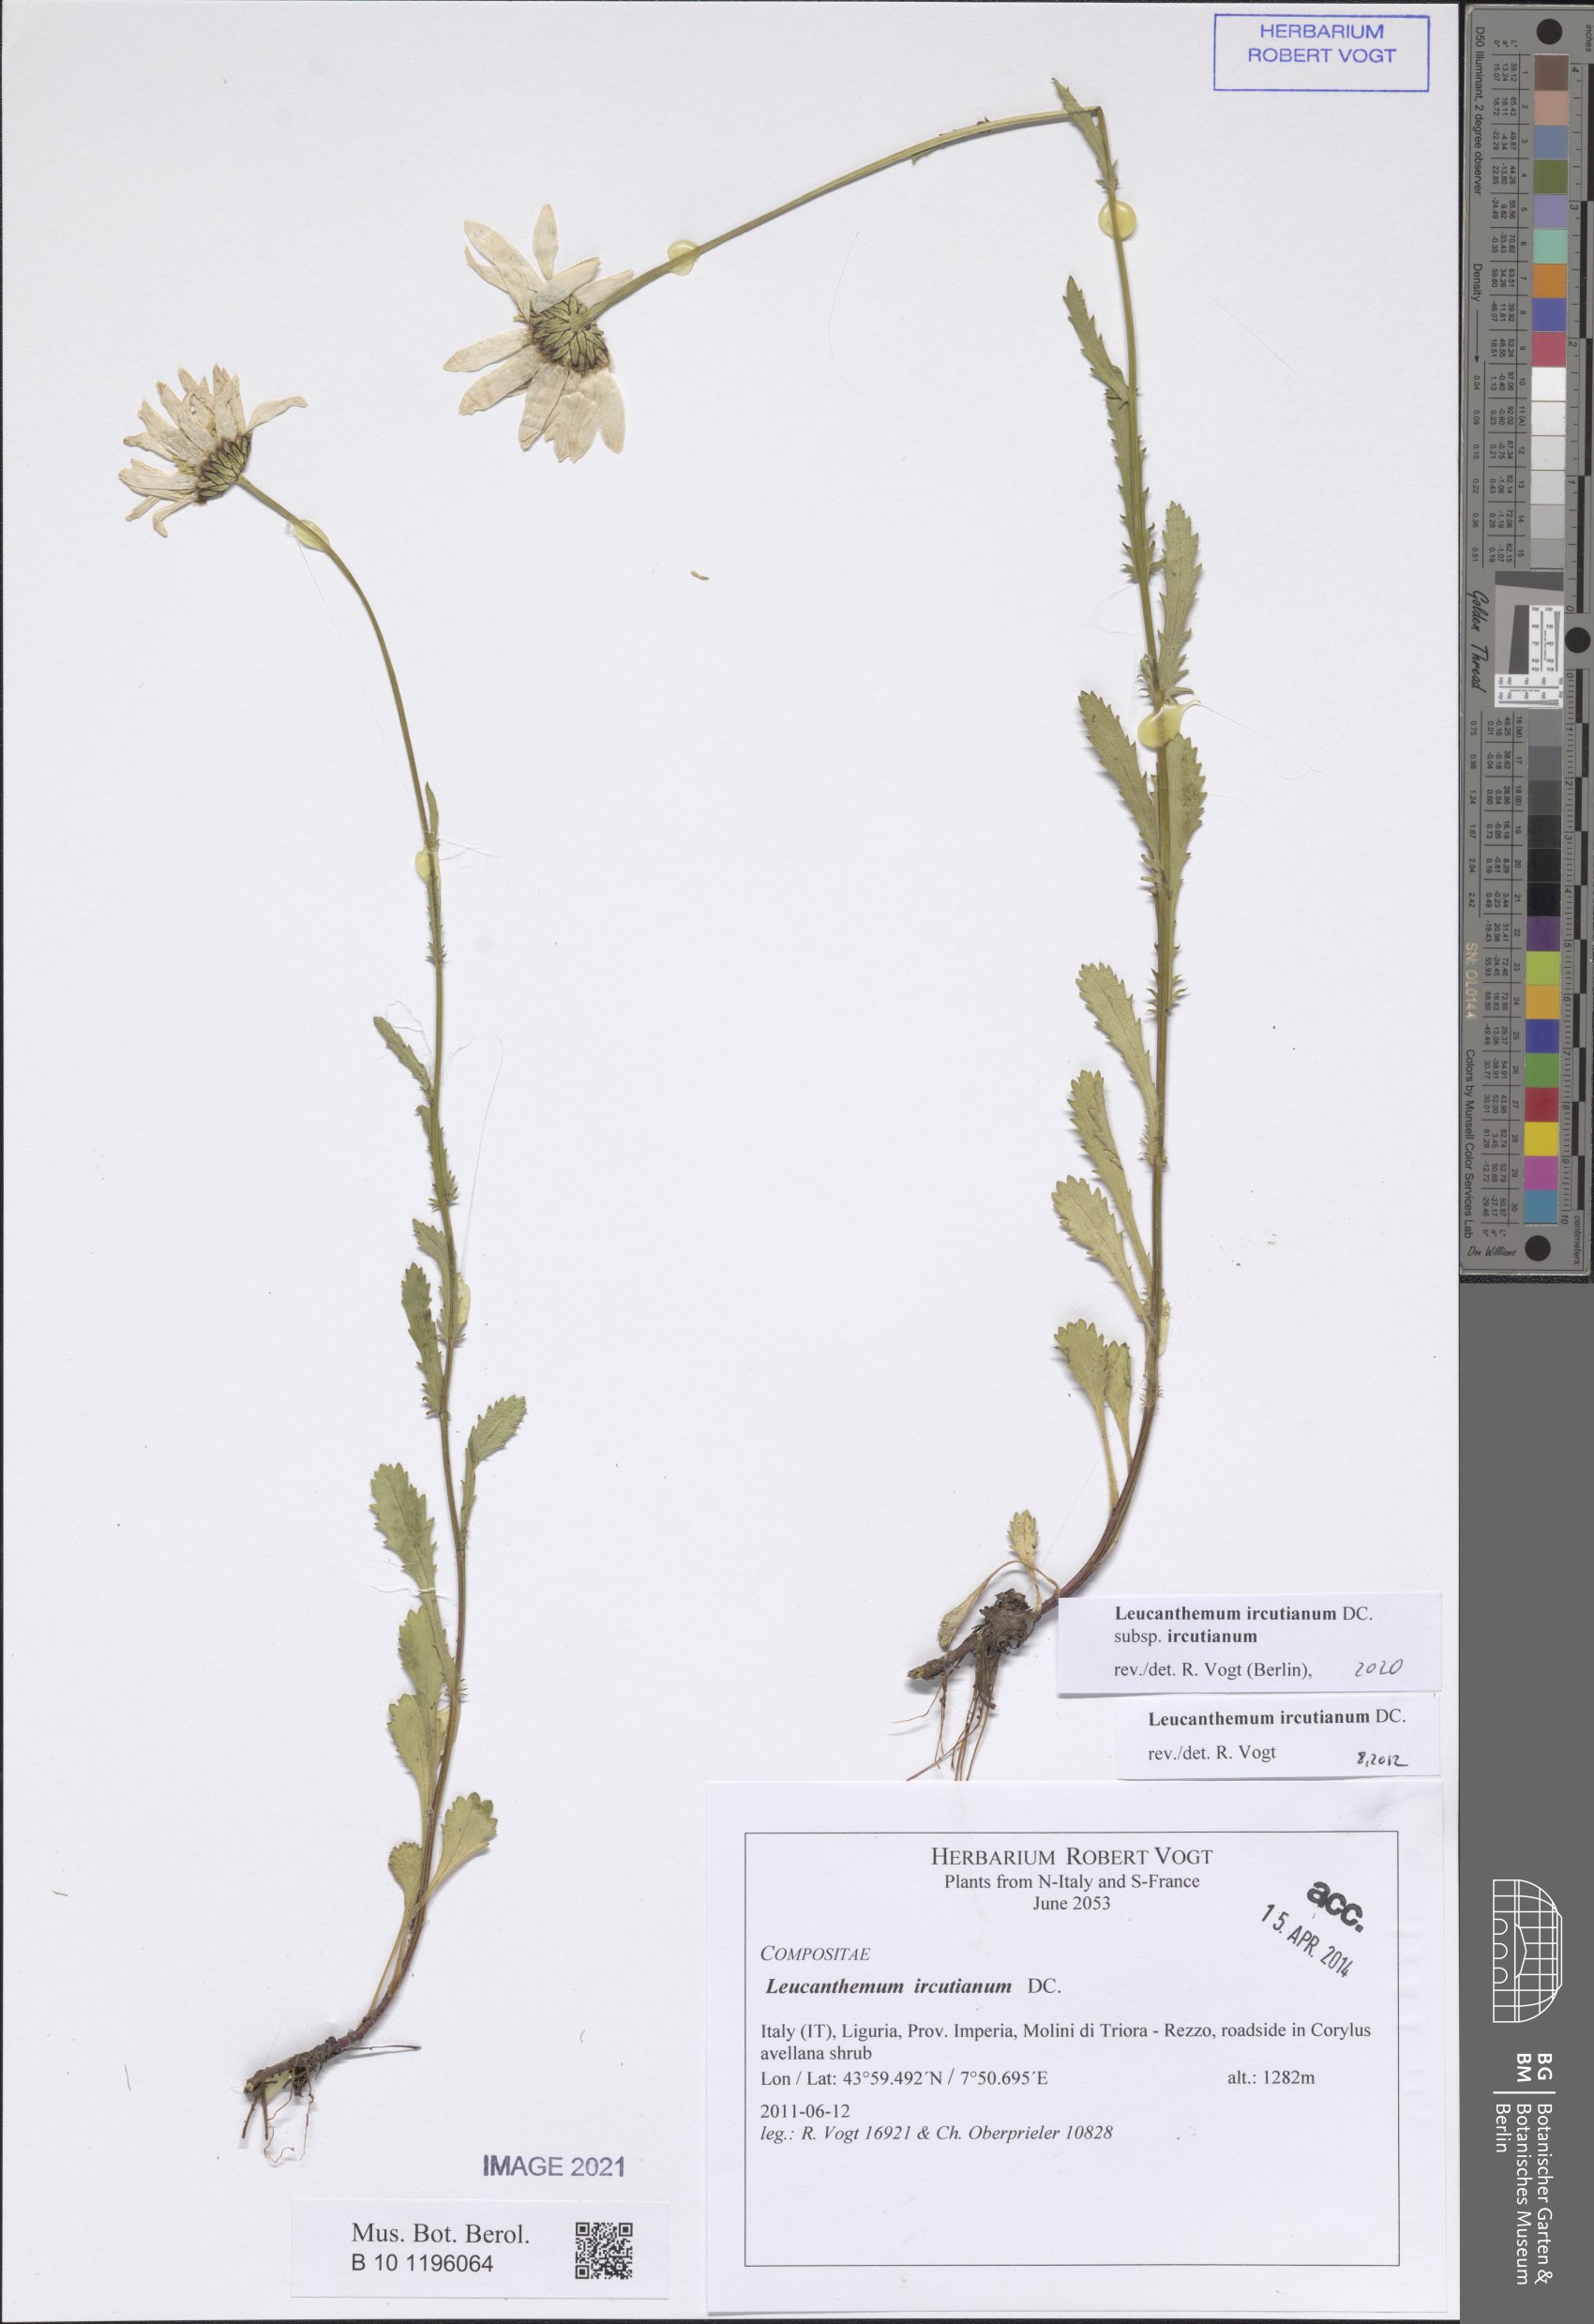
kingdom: Plantae
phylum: Tracheophyta
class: Magnoliopsida
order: Asterales
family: Asteraceae
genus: Leucanthemum
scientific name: Leucanthemum ircutianum
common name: Daisy
